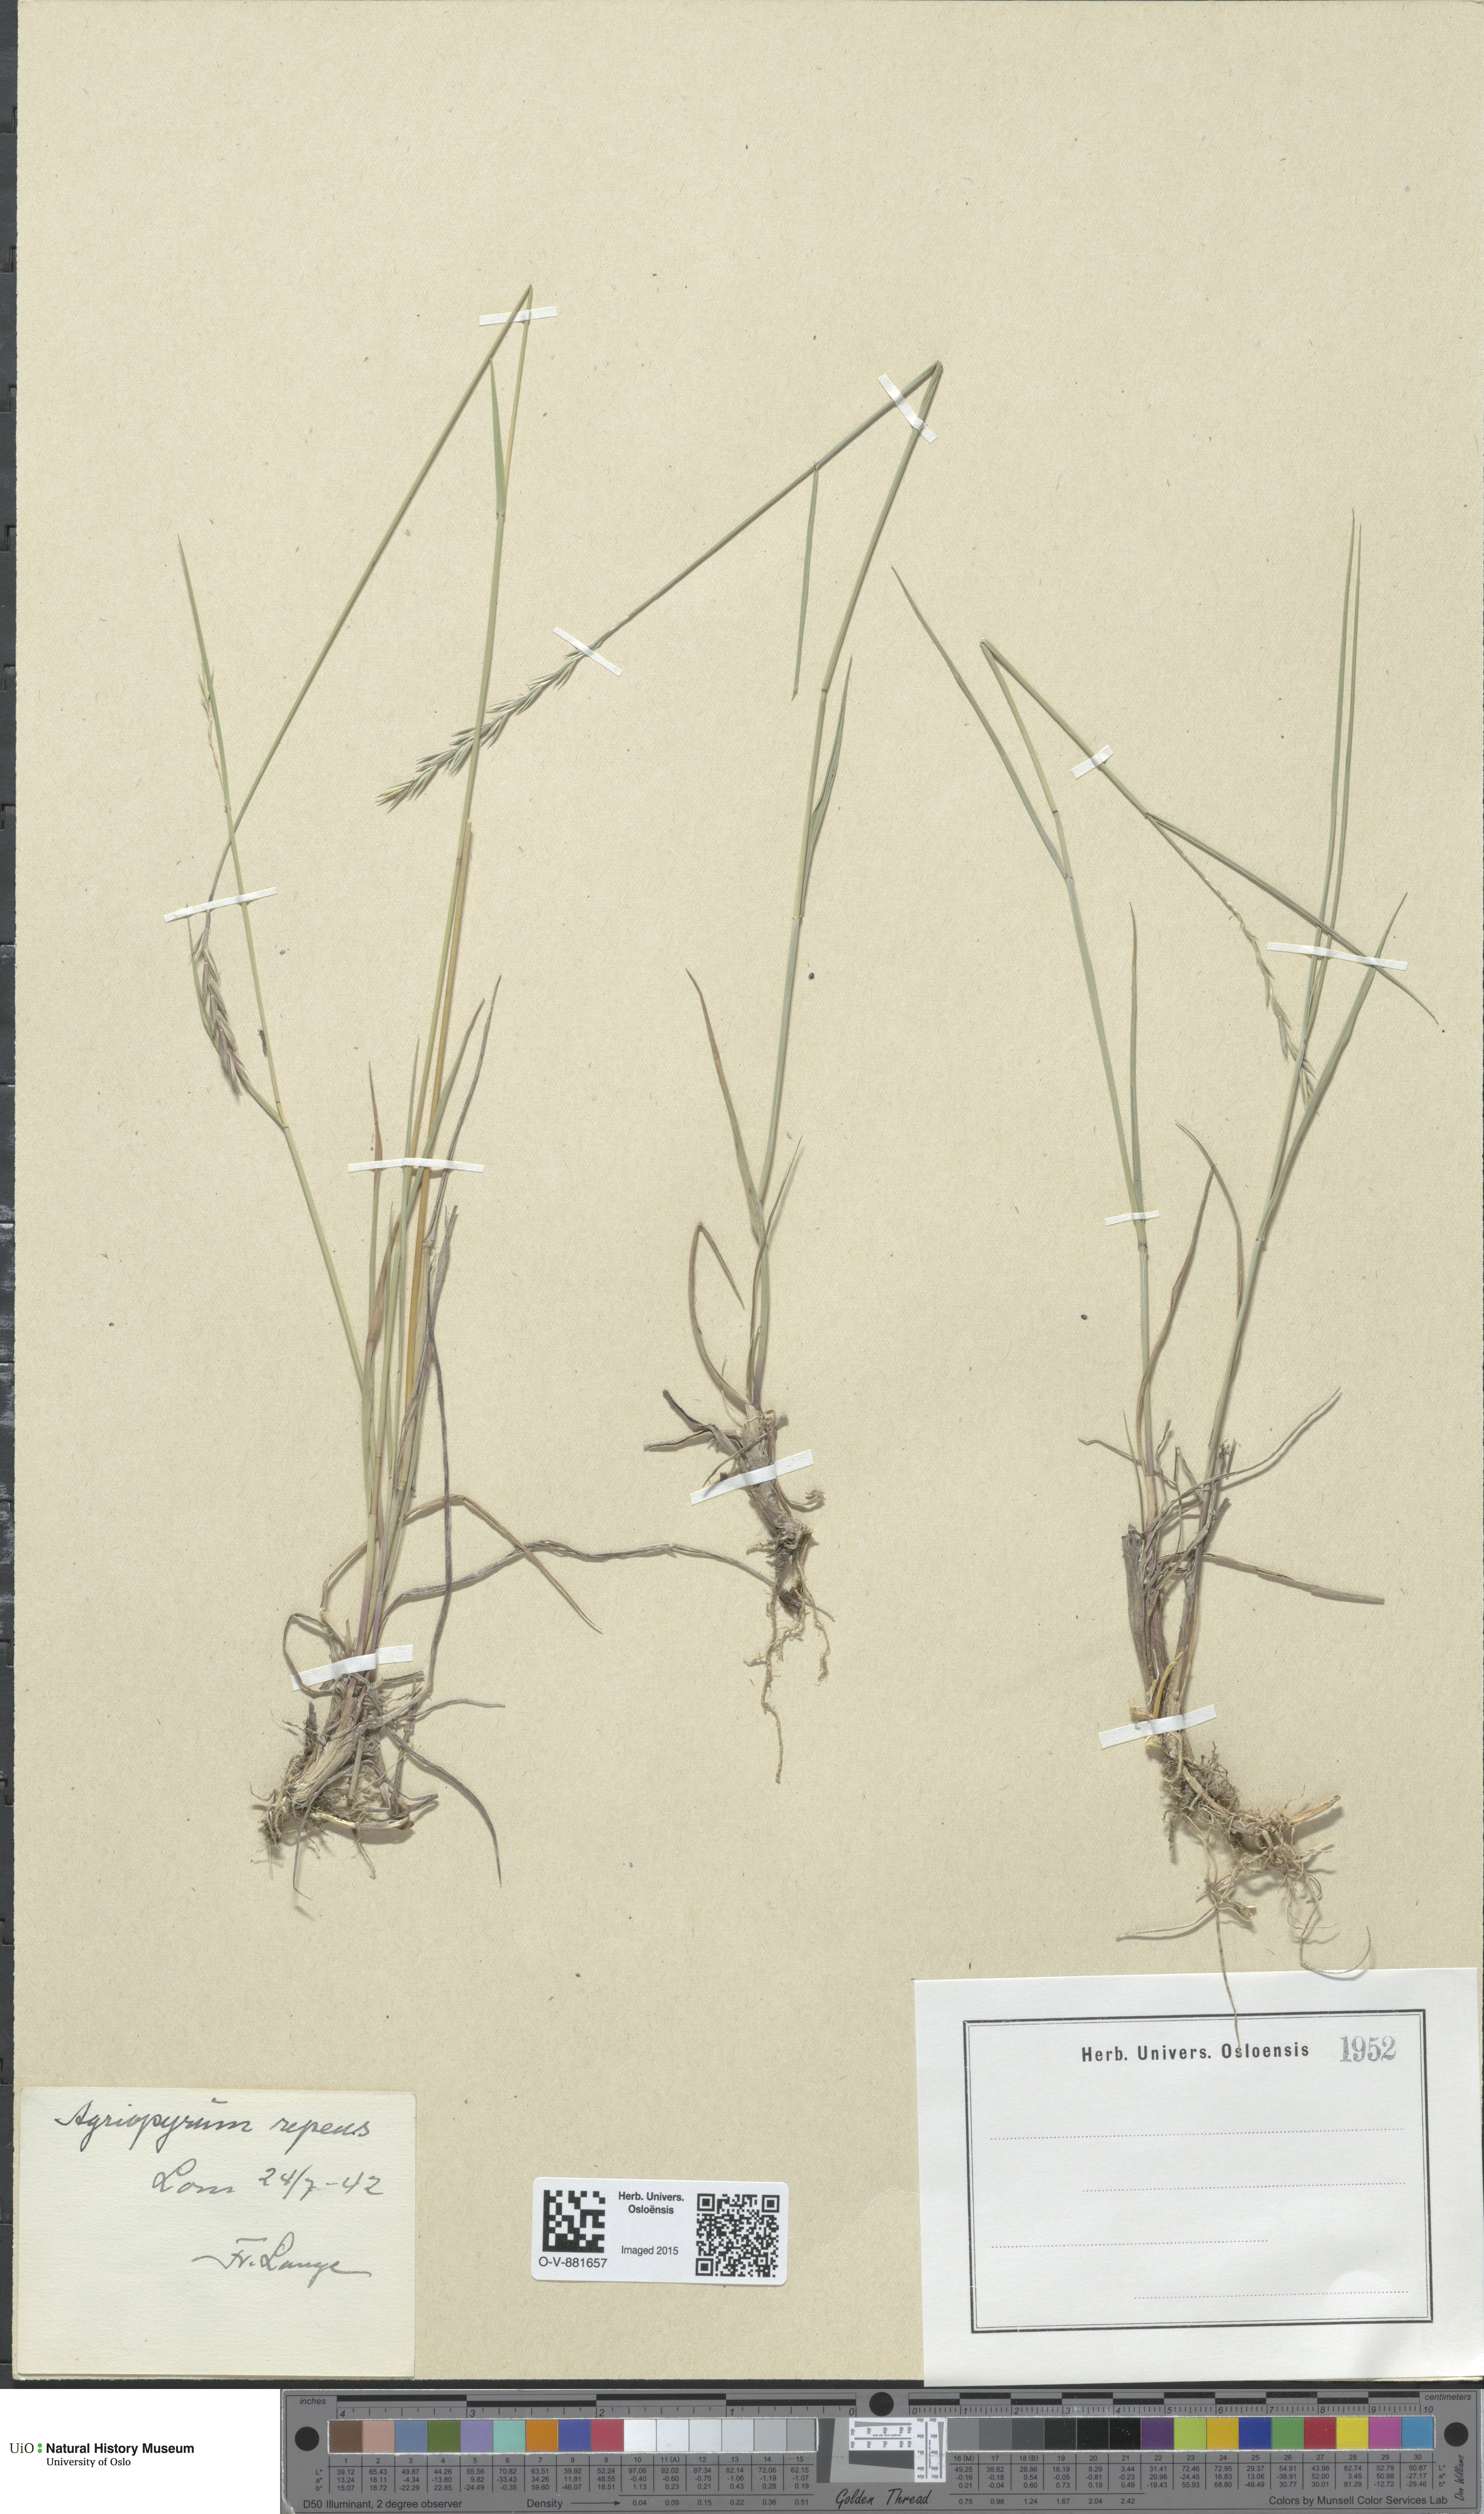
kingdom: Plantae
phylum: Tracheophyta
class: Liliopsida
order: Poales
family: Poaceae
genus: Elymus
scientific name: Elymus repens
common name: Quackgrass
